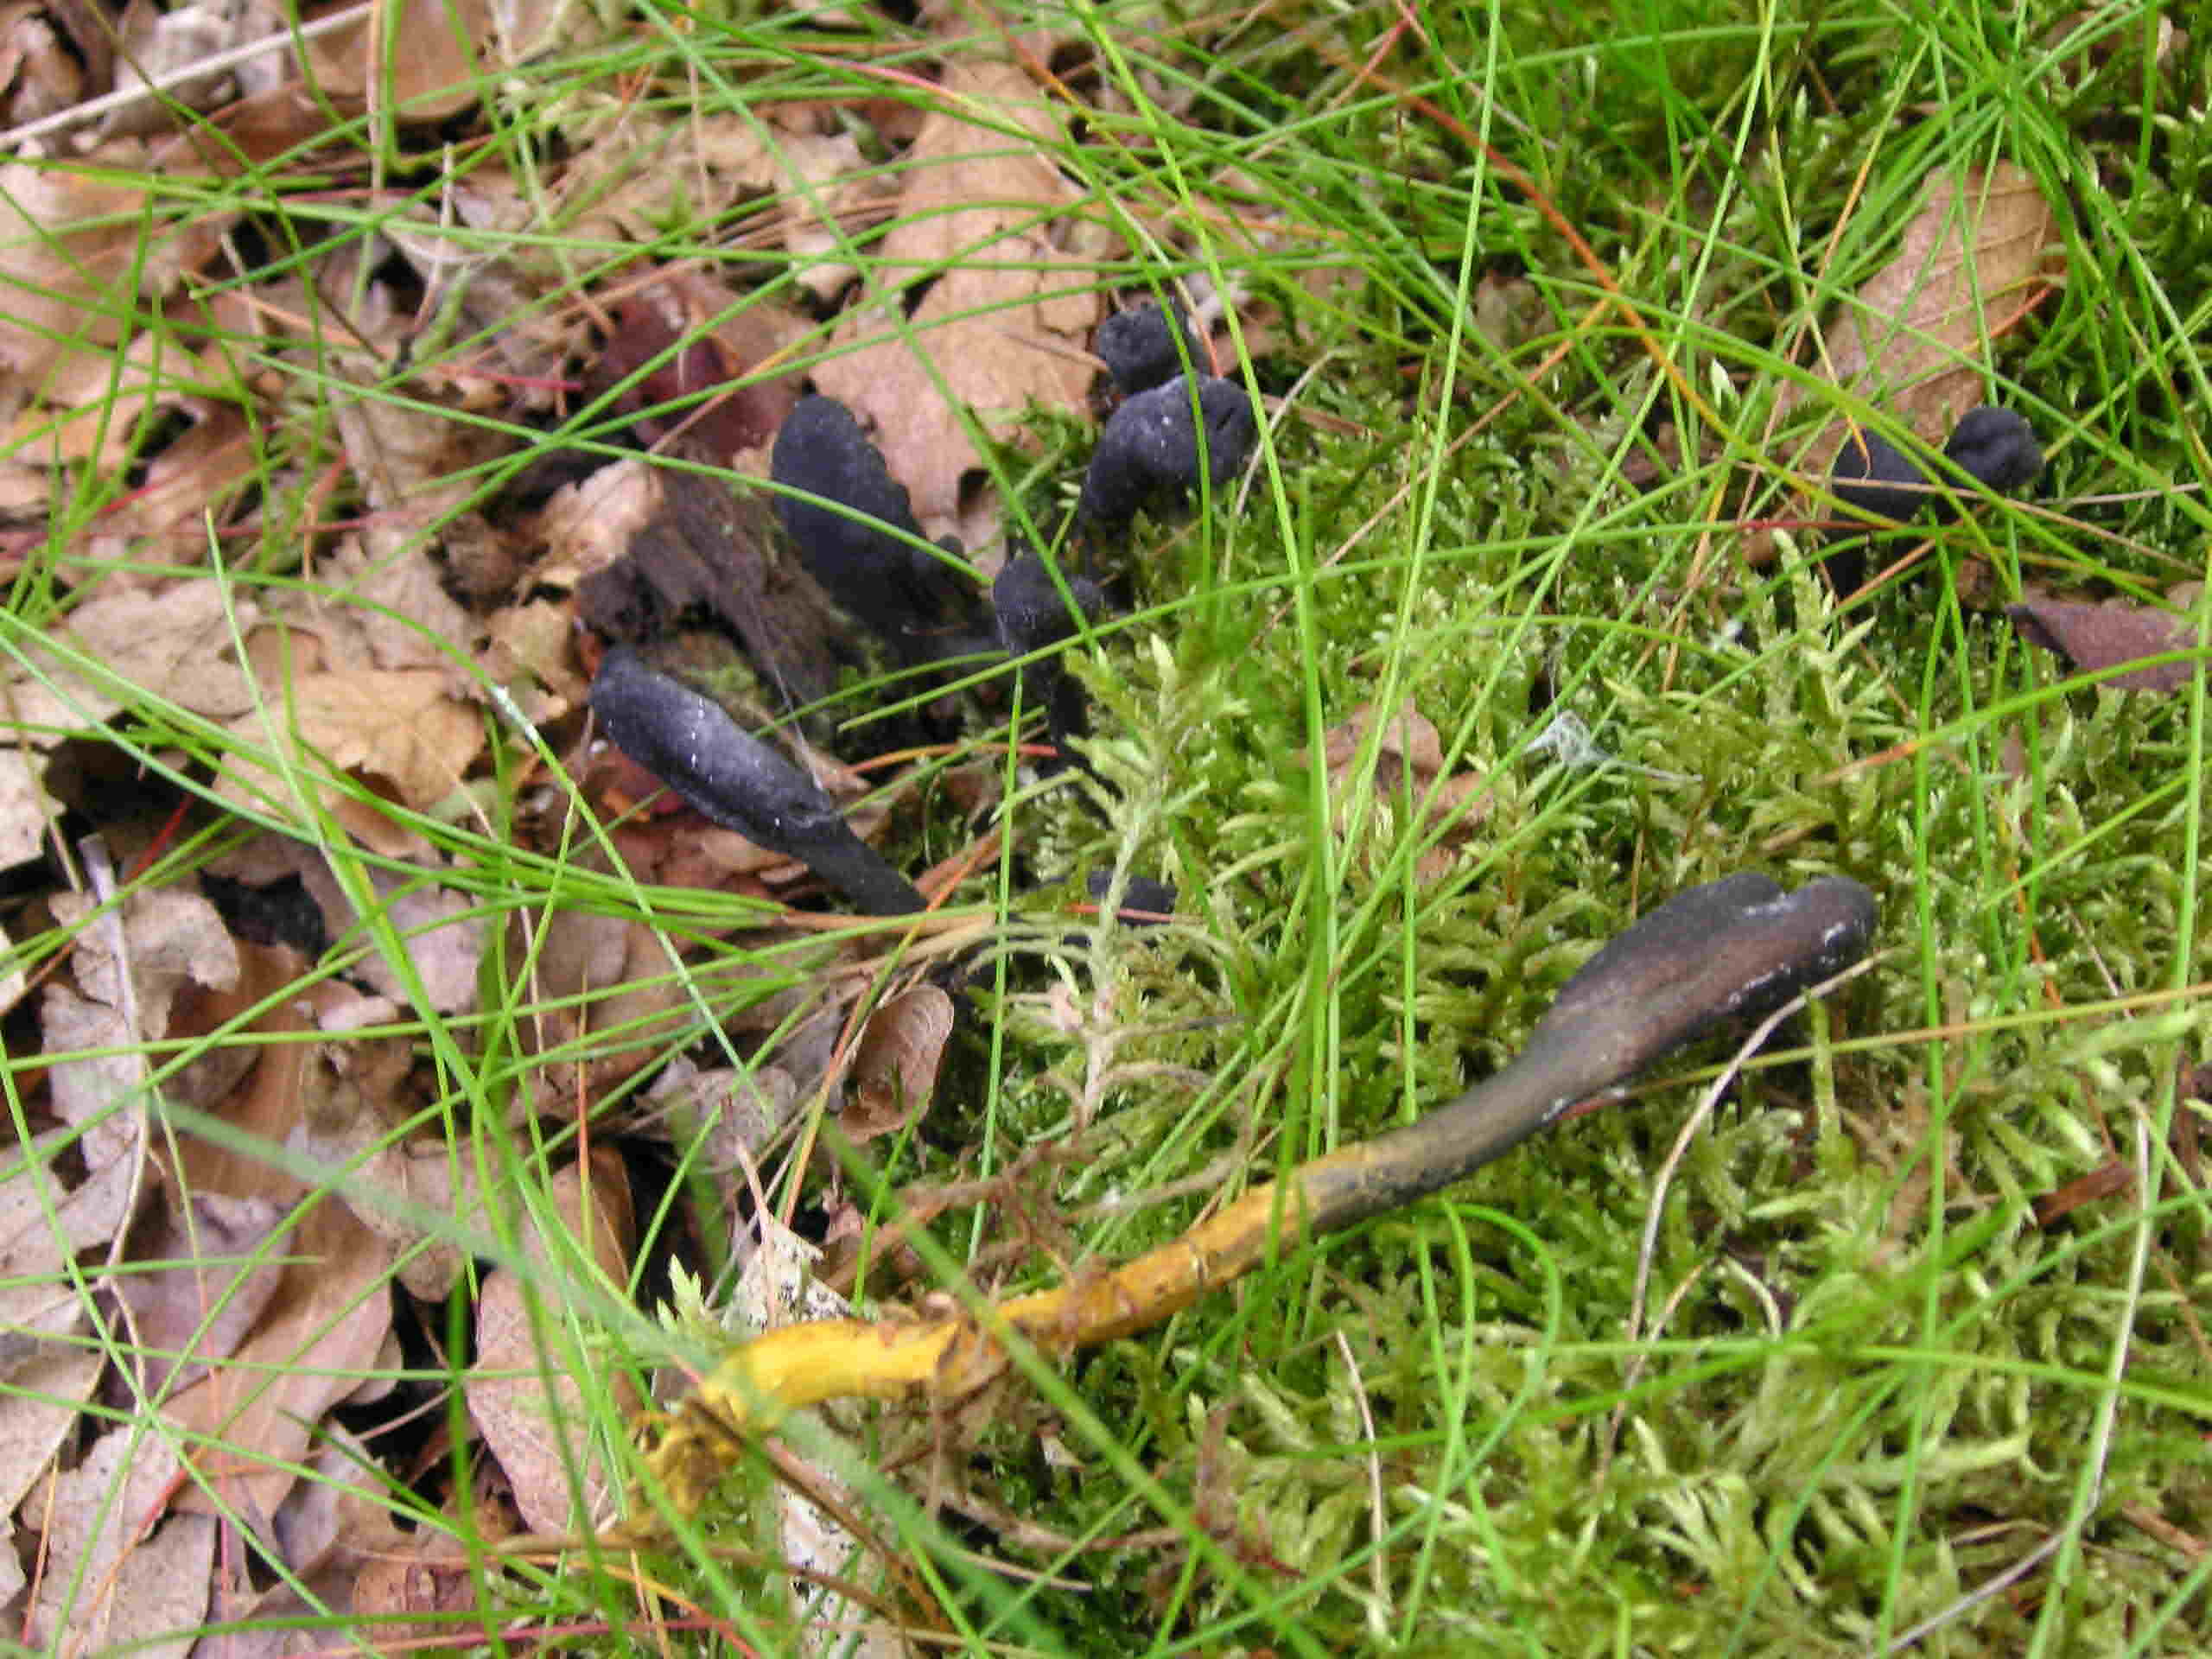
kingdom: Fungi
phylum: Ascomycota
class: Sordariomycetes
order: Hypocreales
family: Ophiocordycipitaceae
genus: Tolypocladium
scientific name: Tolypocladium ophioglossoides
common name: slank snyltekølle
